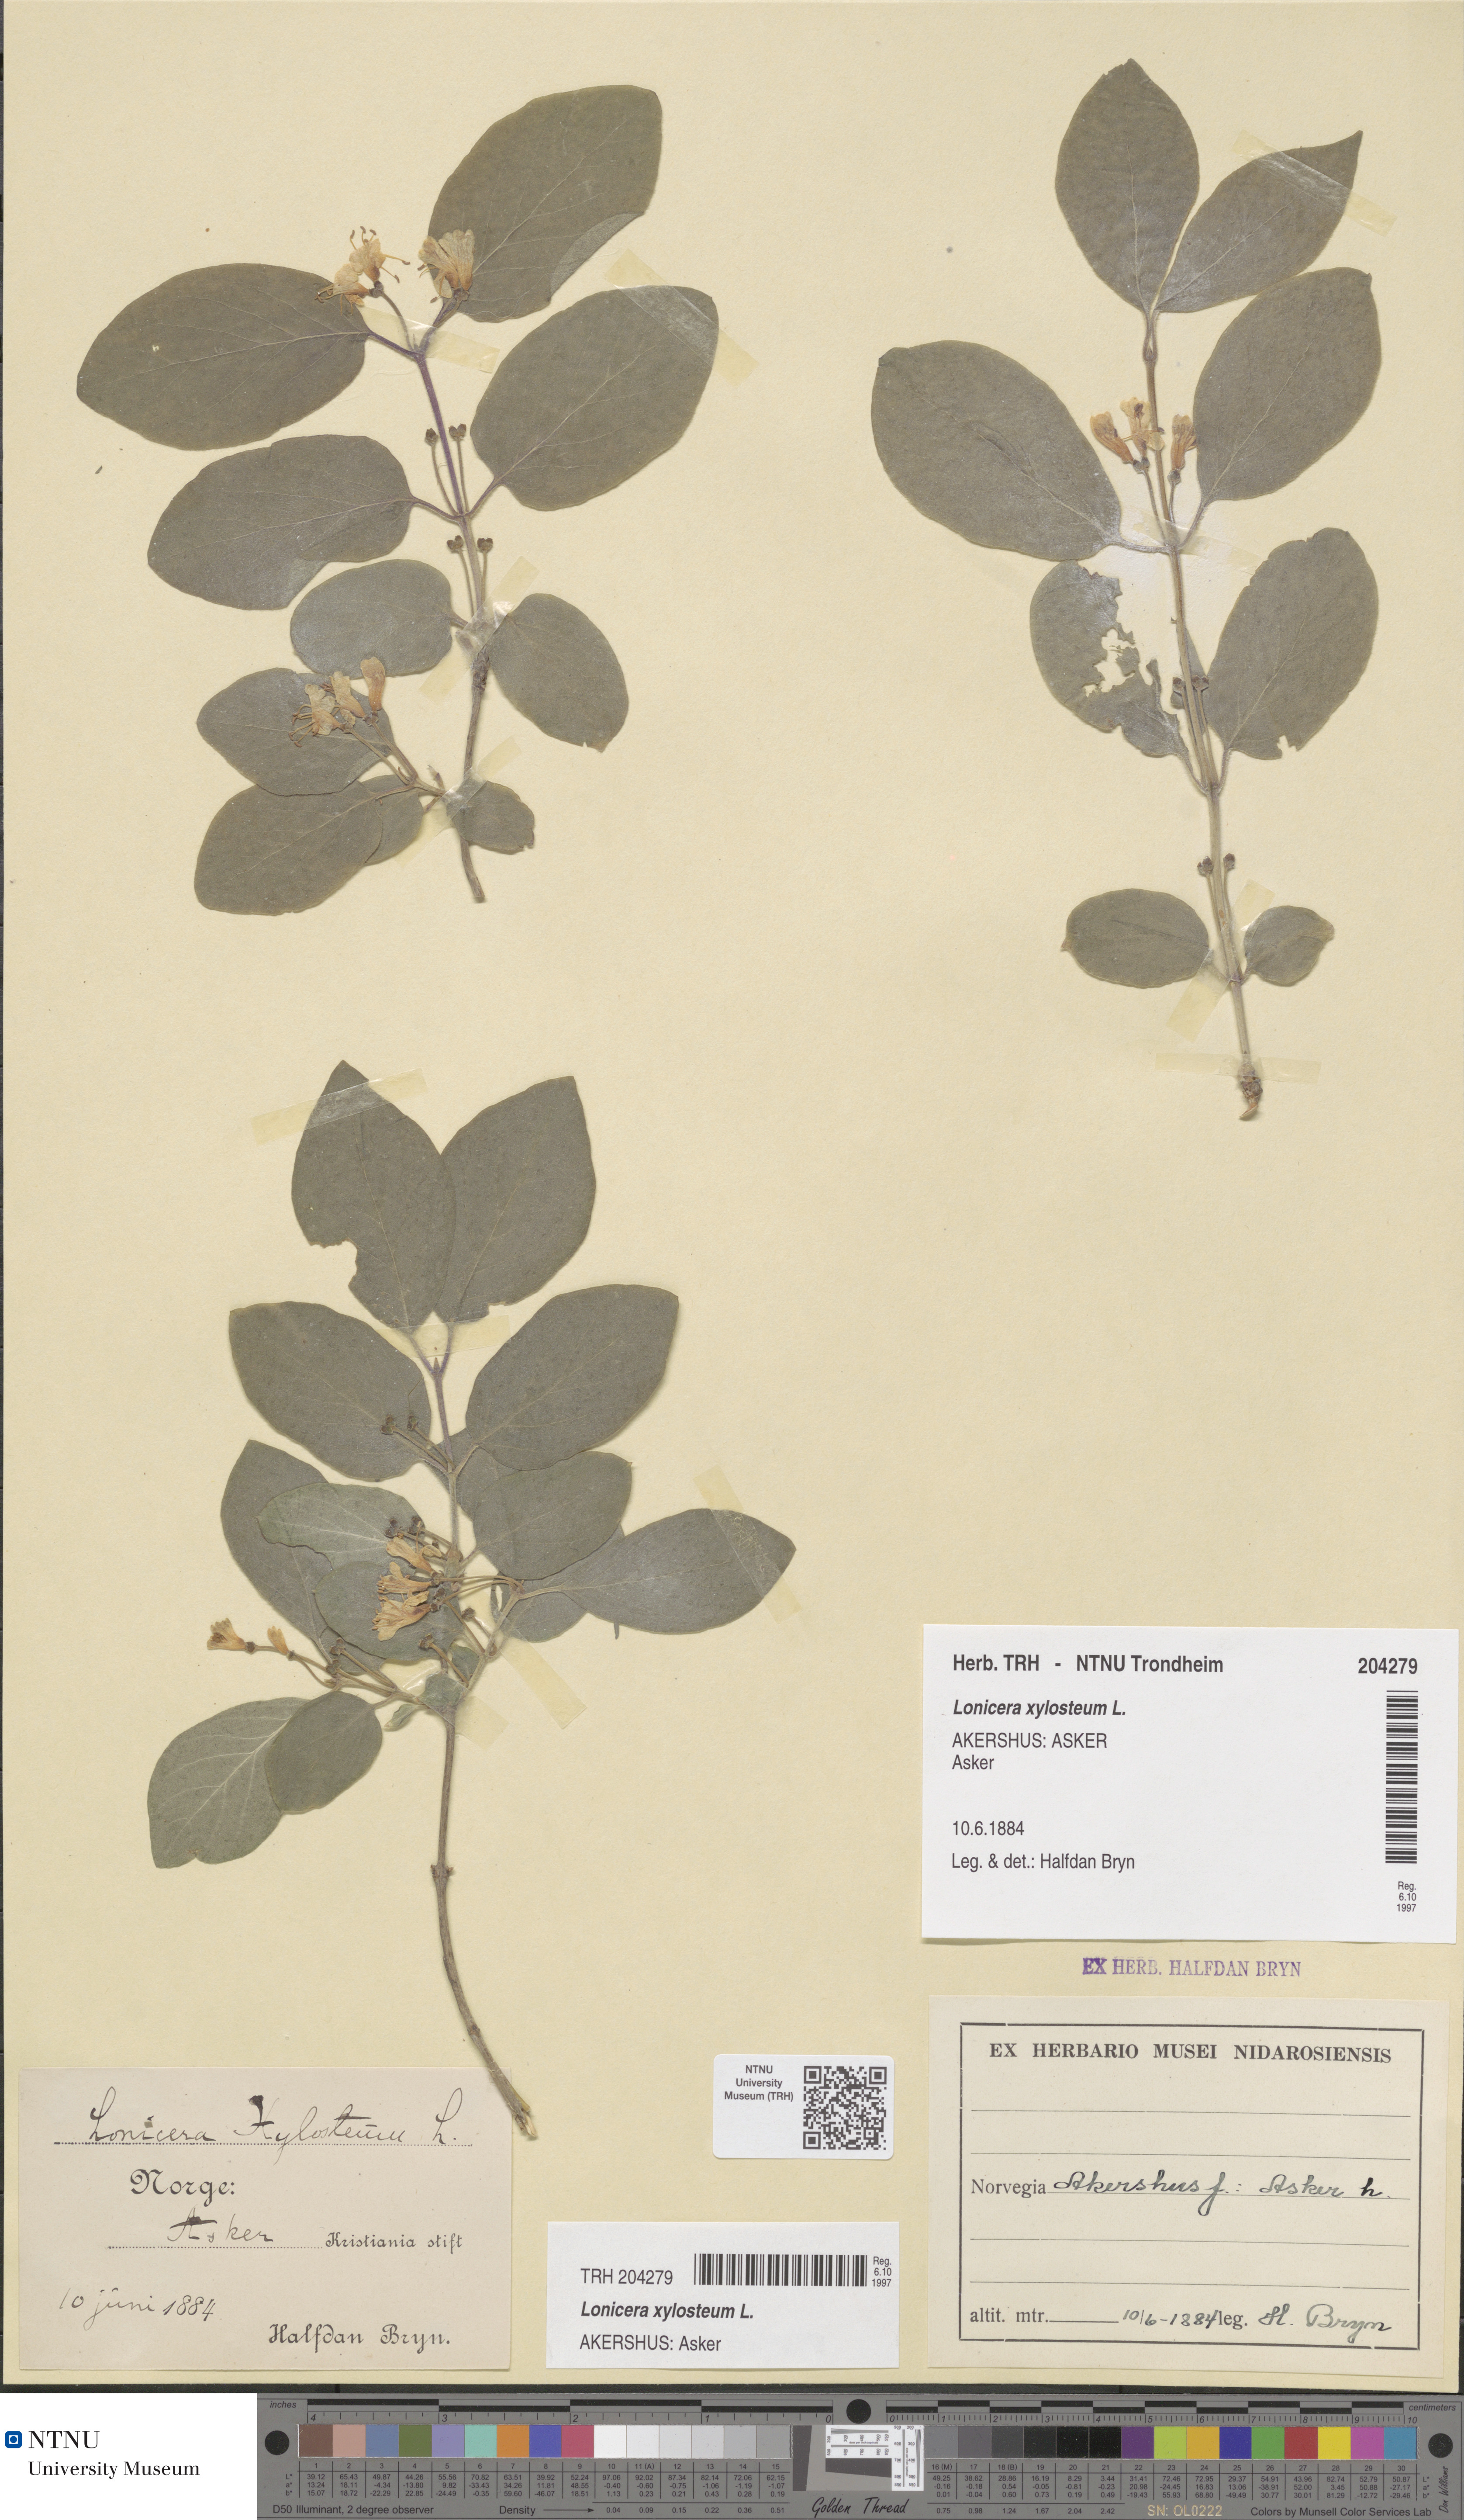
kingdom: Plantae
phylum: Tracheophyta
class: Magnoliopsida
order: Dipsacales
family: Caprifoliaceae
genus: Lonicera
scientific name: Lonicera xylosteum
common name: Fly honeysuckle
